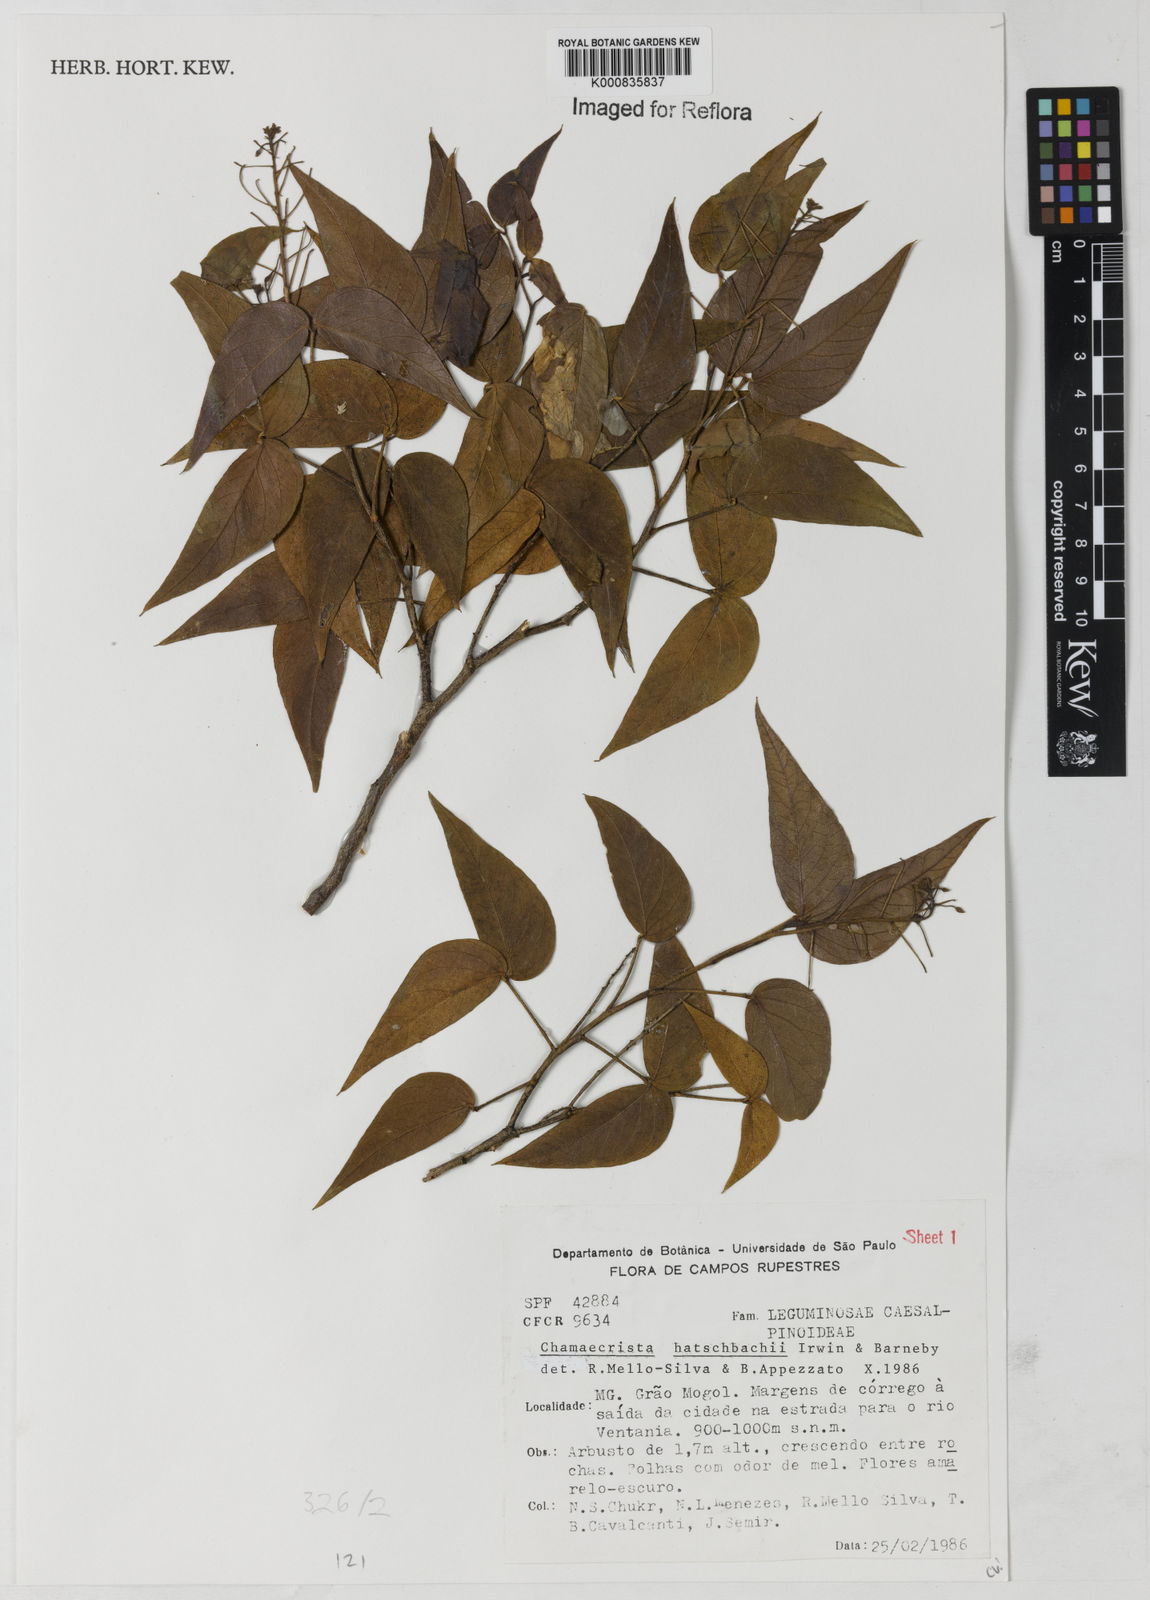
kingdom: Plantae
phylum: Tracheophyta
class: Magnoliopsida
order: Fabales
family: Fabaceae
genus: Chamaecrista
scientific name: Chamaecrista hatschbachii
